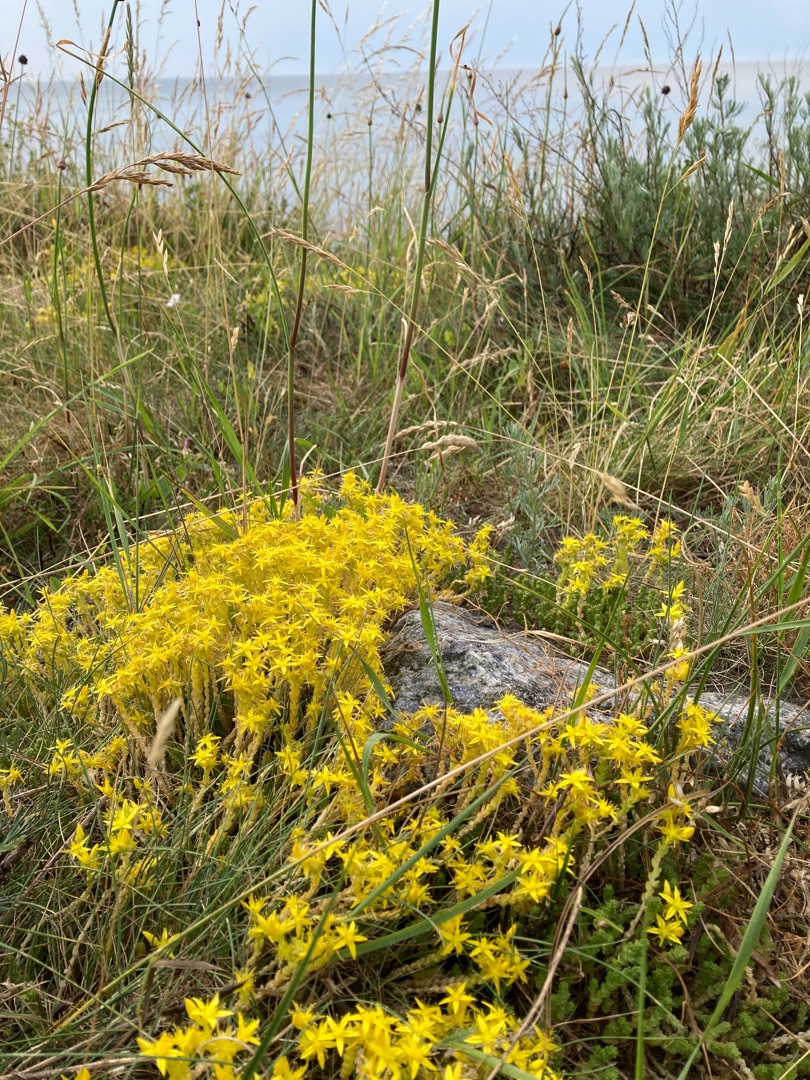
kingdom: Plantae
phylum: Tracheophyta
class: Magnoliopsida
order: Saxifragales
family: Crassulaceae
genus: Sedum
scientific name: Sedum acre
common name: Bidende stenurt
